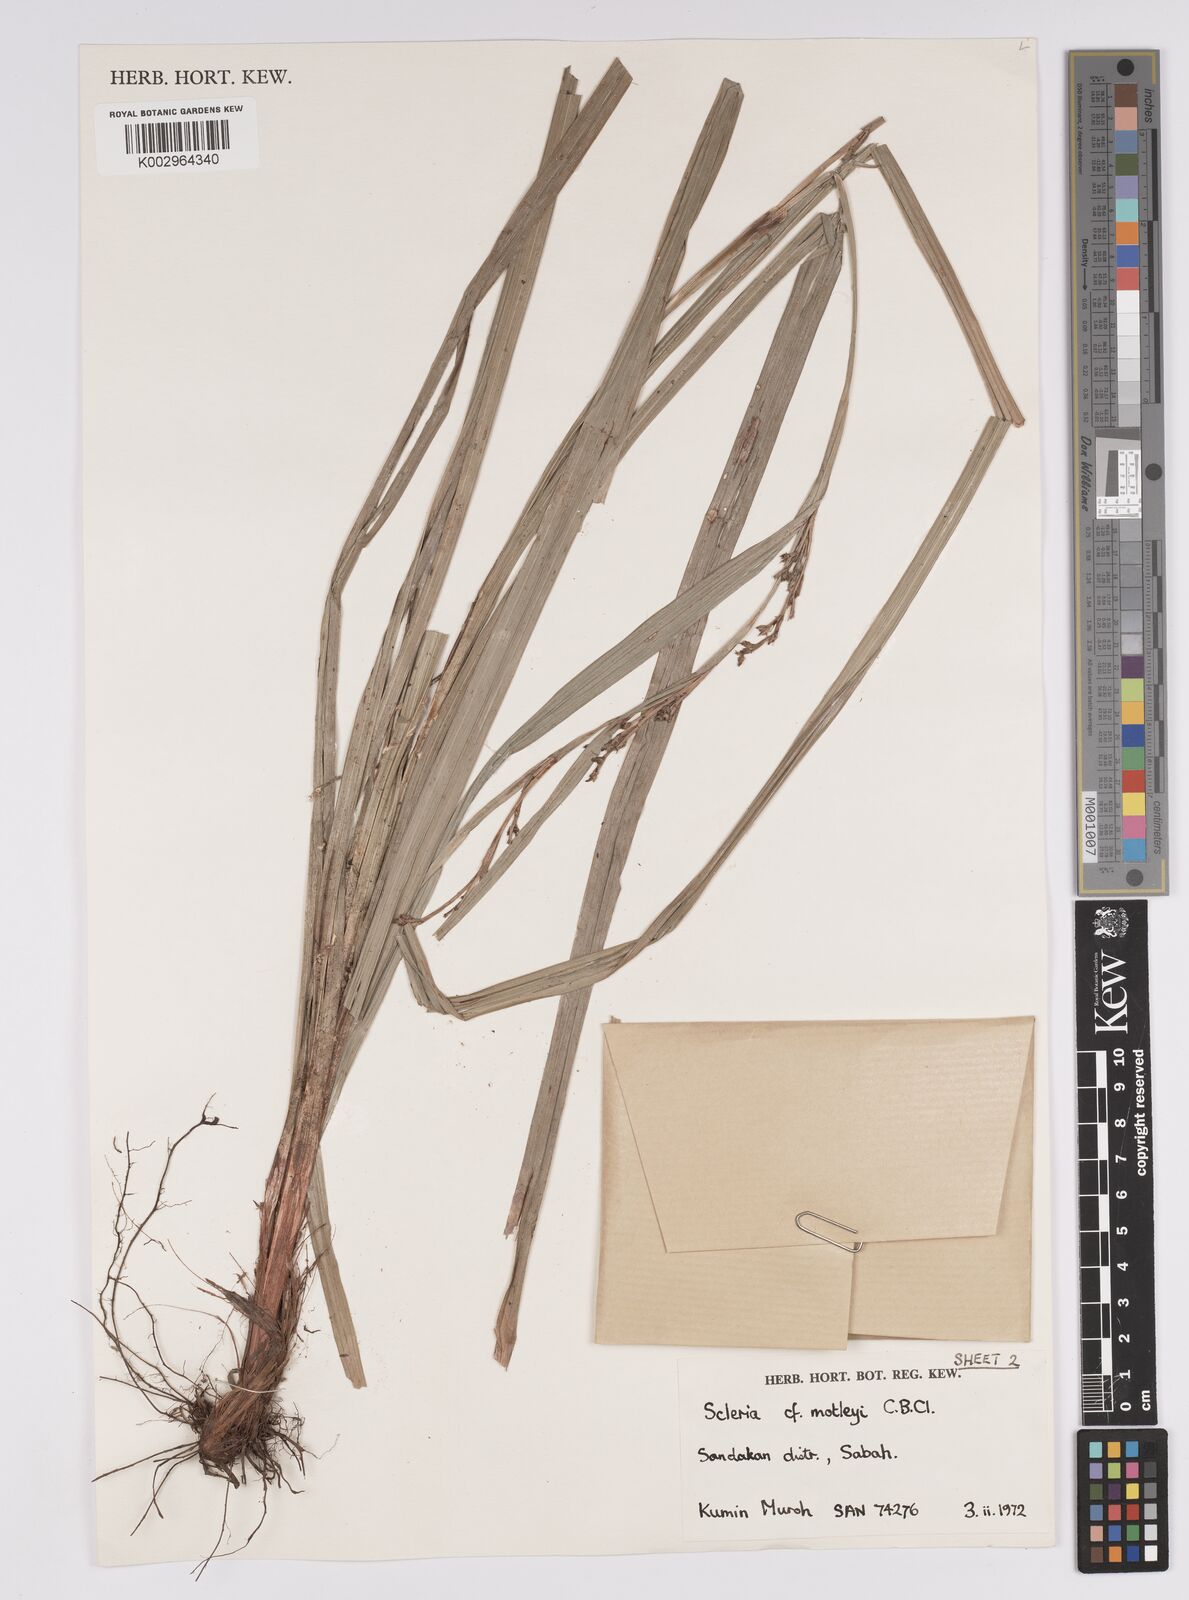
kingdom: Plantae
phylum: Tracheophyta
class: Liliopsida
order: Poales
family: Cyperaceae
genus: Scleria
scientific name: Scleria motleyi
